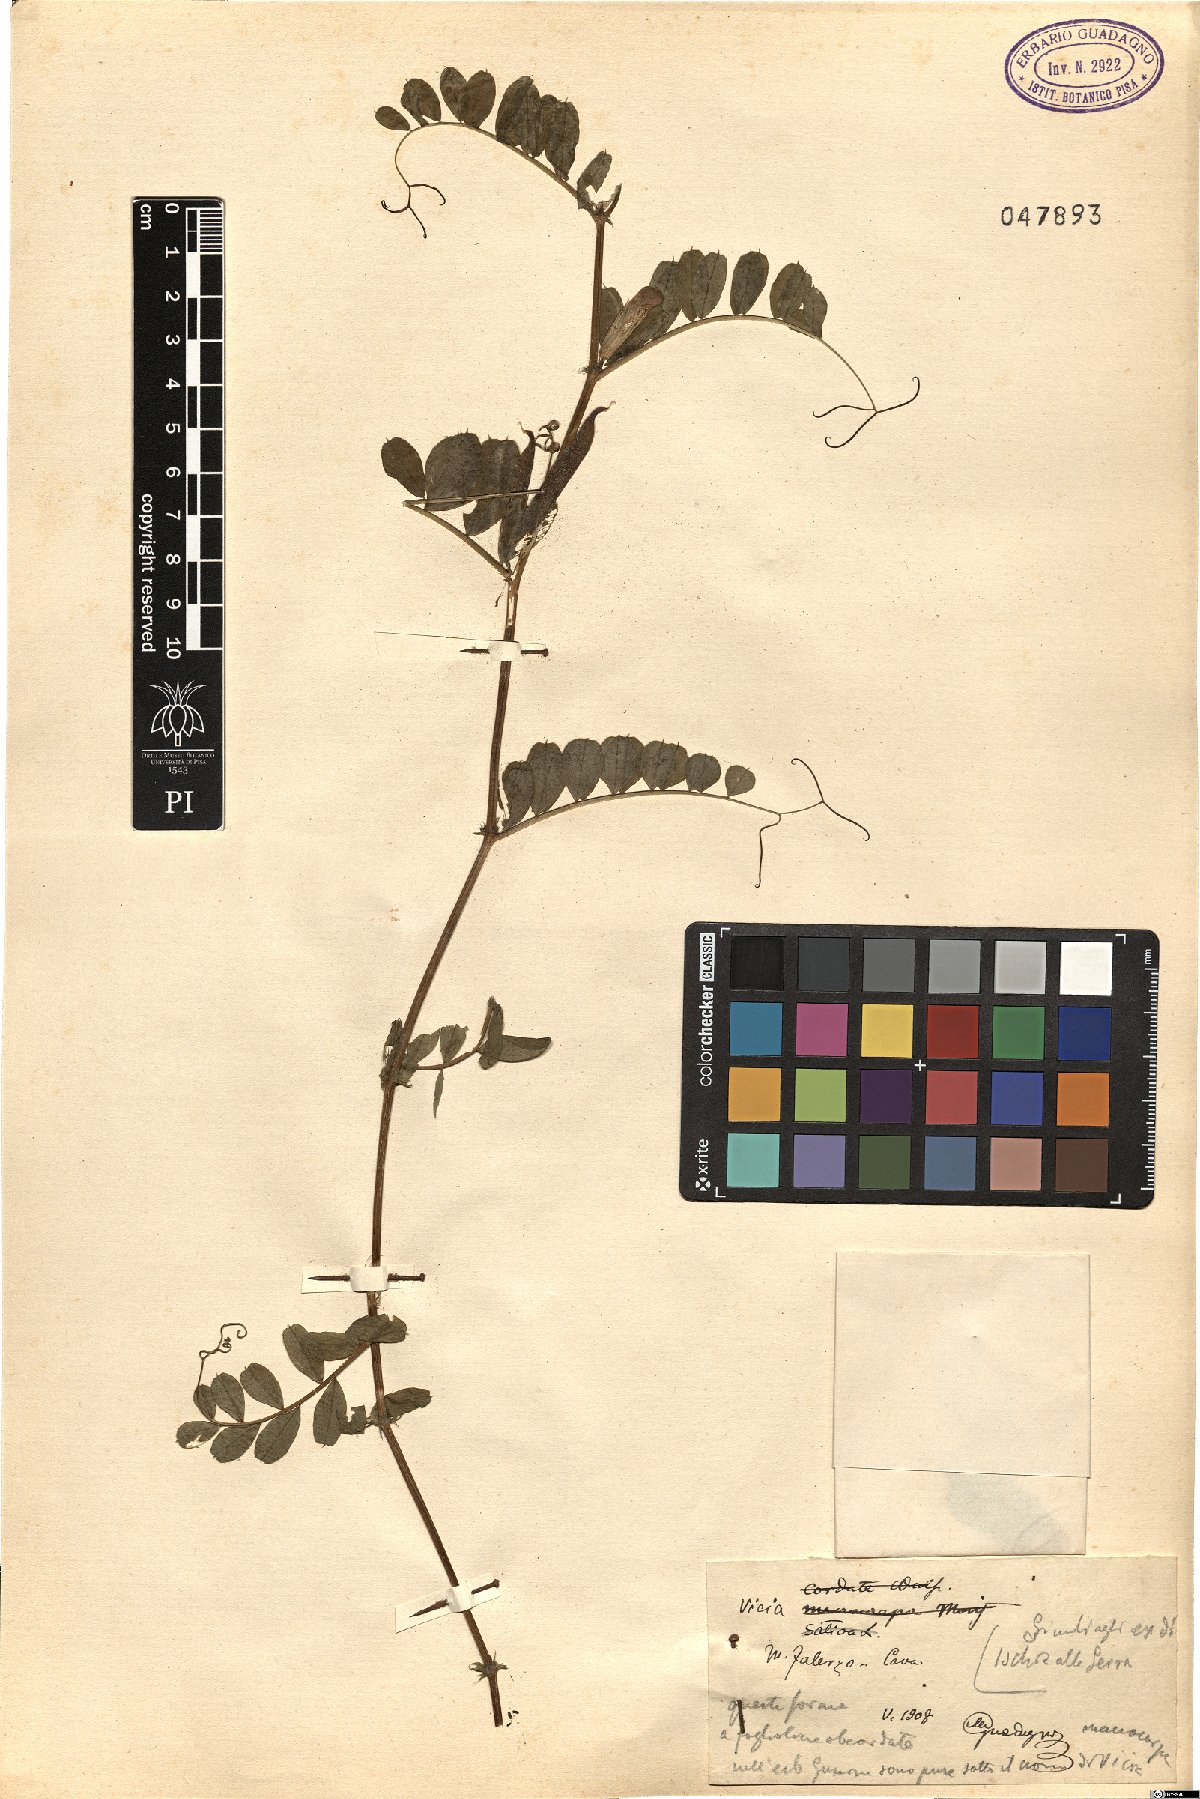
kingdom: Plantae
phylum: Tracheophyta
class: Magnoliopsida
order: Fabales
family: Fabaceae
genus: Vicia
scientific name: Vicia
